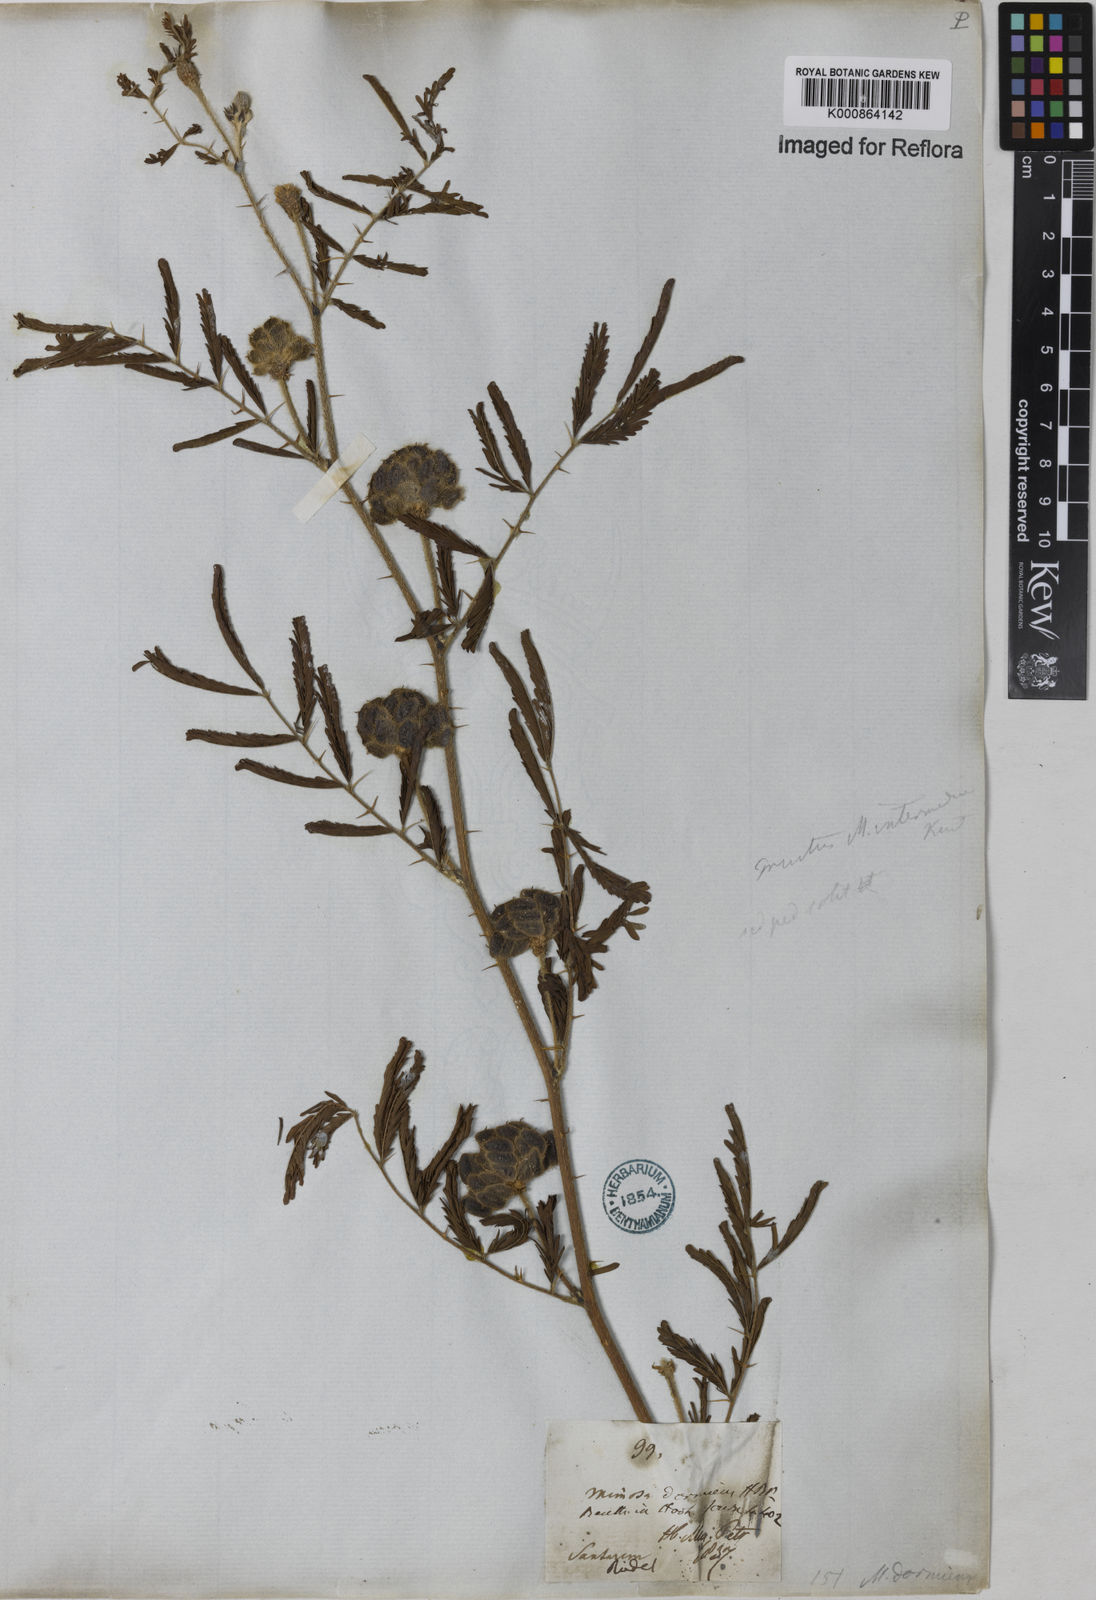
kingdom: Plantae
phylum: Tracheophyta
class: Magnoliopsida
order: Fabales
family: Fabaceae
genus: Mimosa
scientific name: Mimosa
